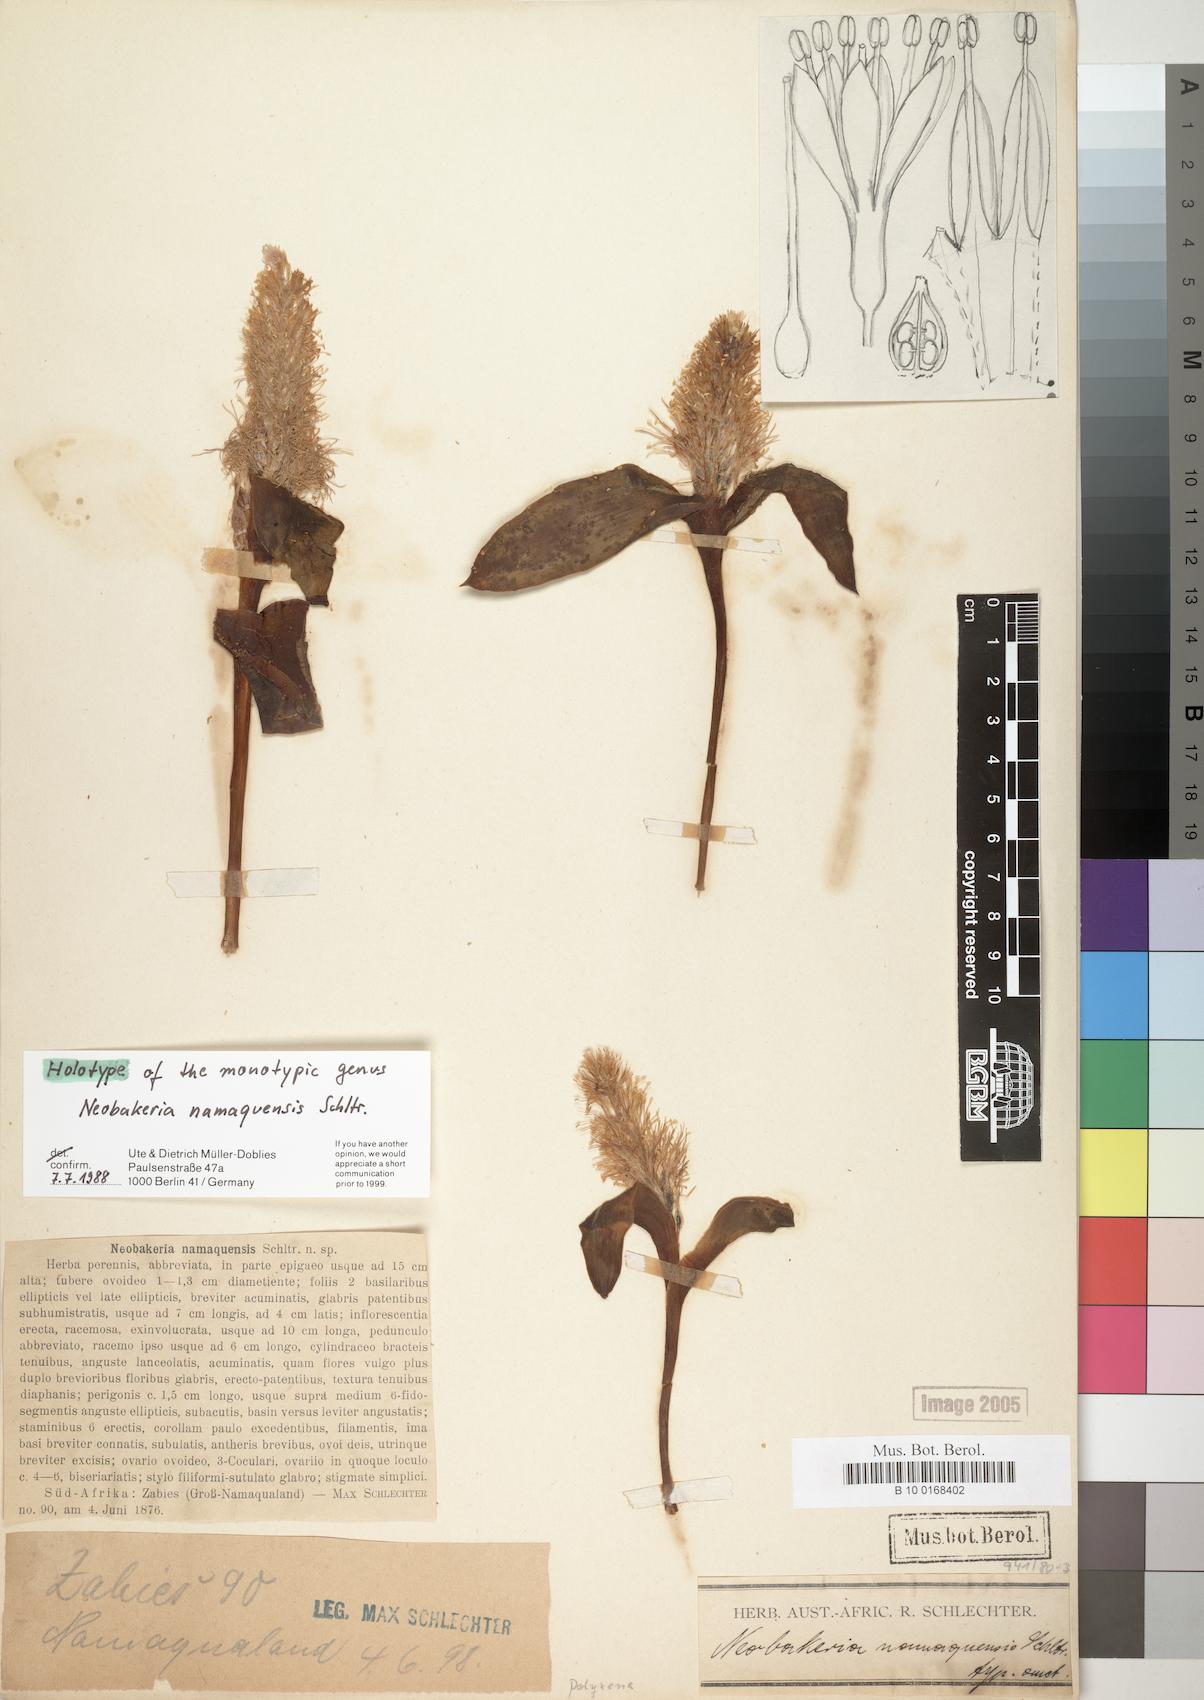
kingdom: Plantae
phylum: Tracheophyta
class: Liliopsida
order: Asparagales
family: Asparagaceae
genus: Daubenya
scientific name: Daubenya namaquensis
